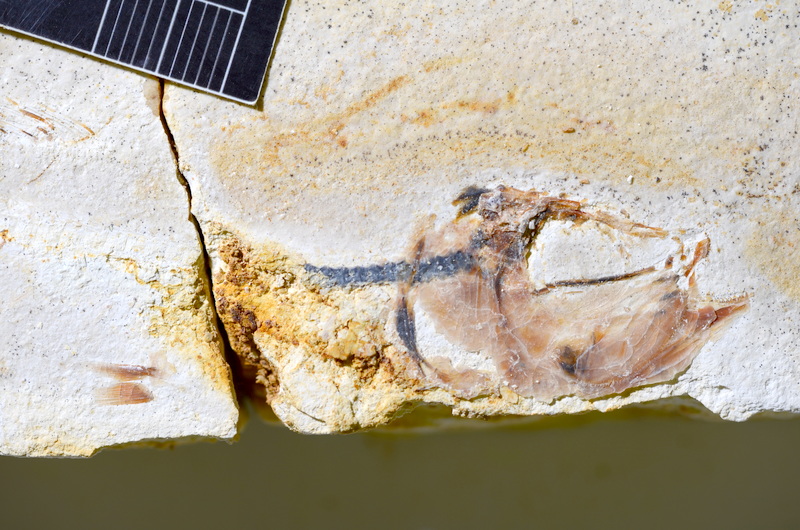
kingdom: Animalia
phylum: Chordata
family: Ascalaboidae
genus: Ebertichthys
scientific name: Ebertichthys ettlingensis
